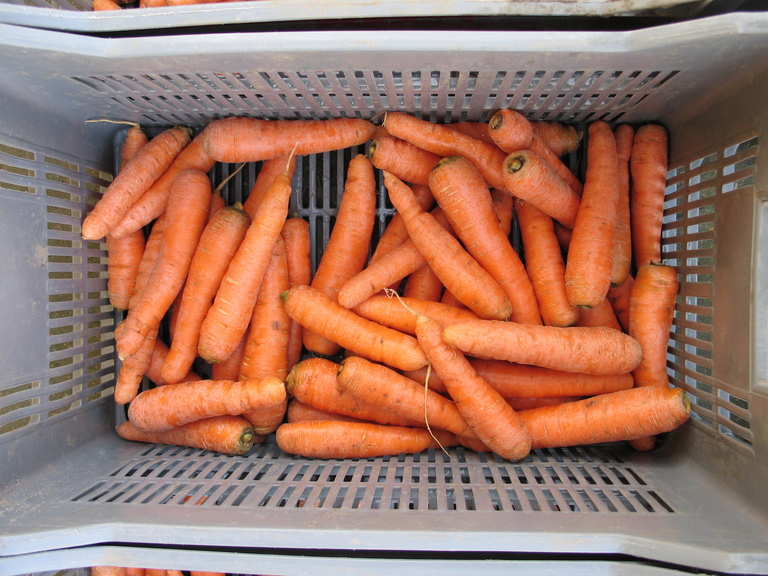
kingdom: Plantae
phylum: Tracheophyta
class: Magnoliopsida
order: Apiales
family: Apiaceae
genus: Daucus
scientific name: Daucus carota
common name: Wild carrot
